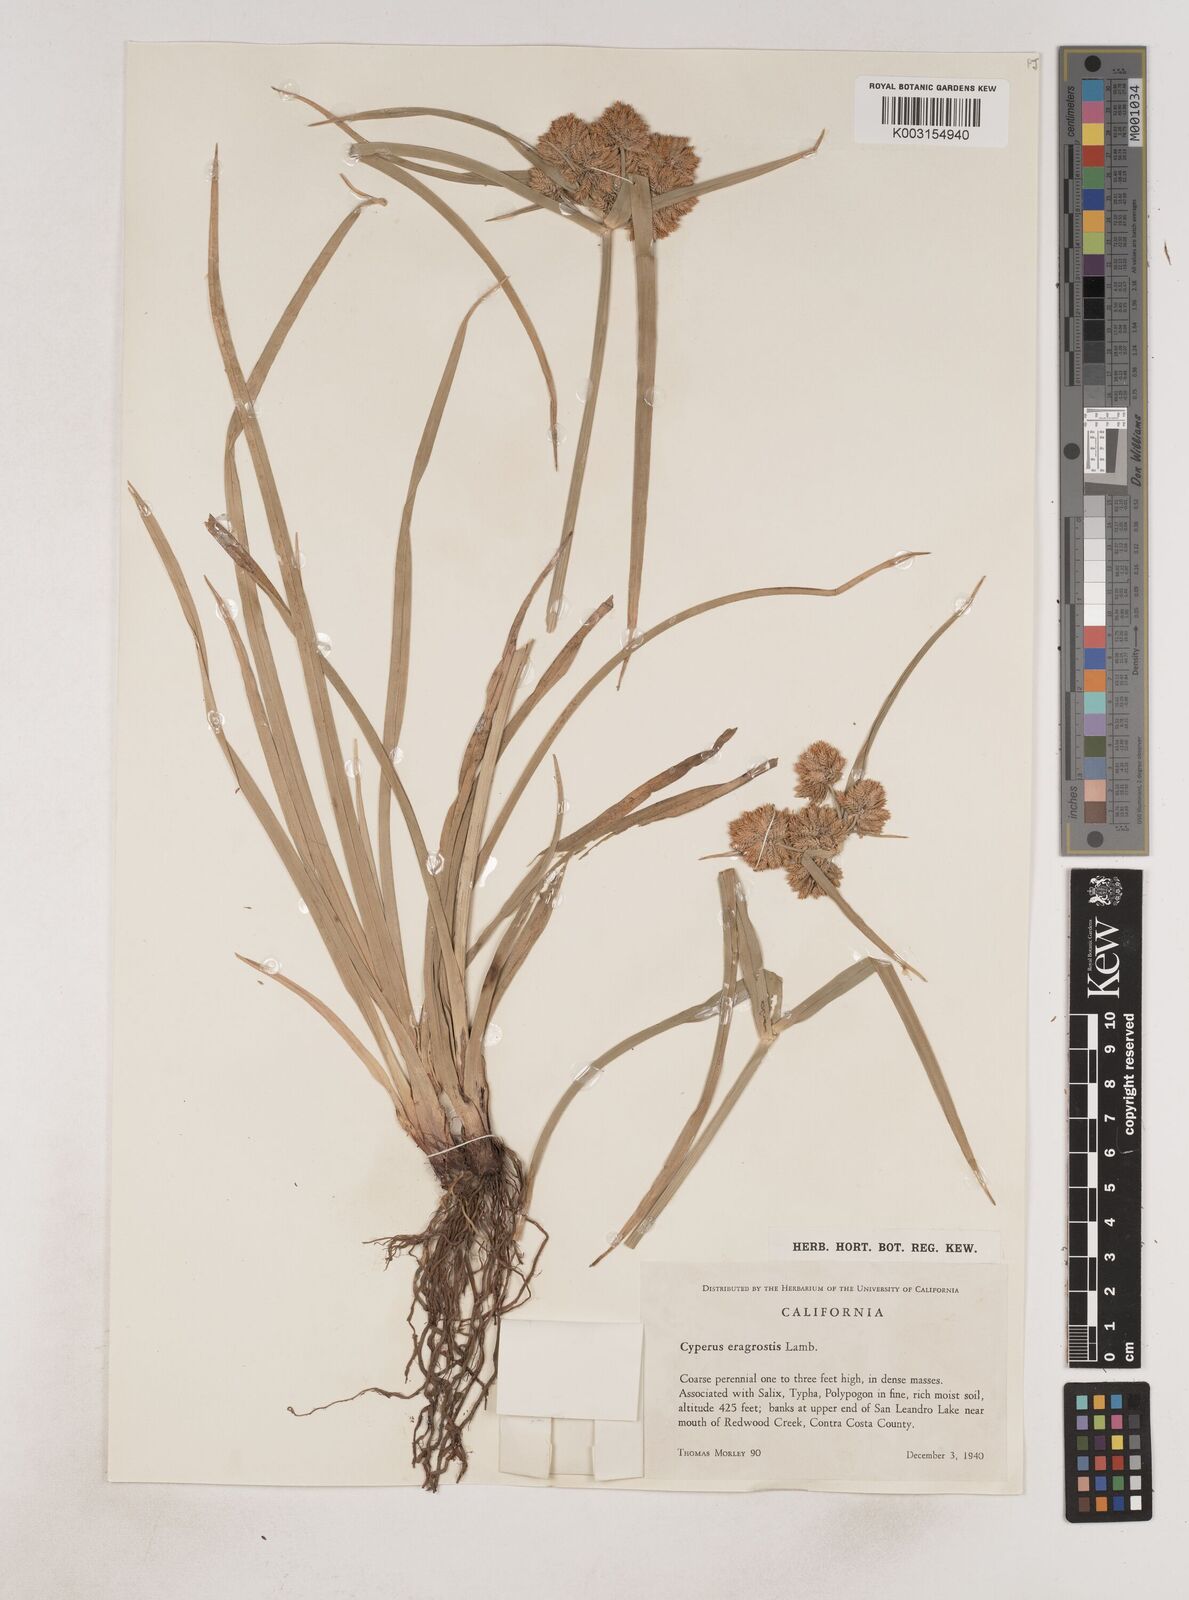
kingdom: Plantae
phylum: Tracheophyta
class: Liliopsida
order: Poales
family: Cyperaceae
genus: Cyperus
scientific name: Cyperus eragrostis
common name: Tall flatsedge
